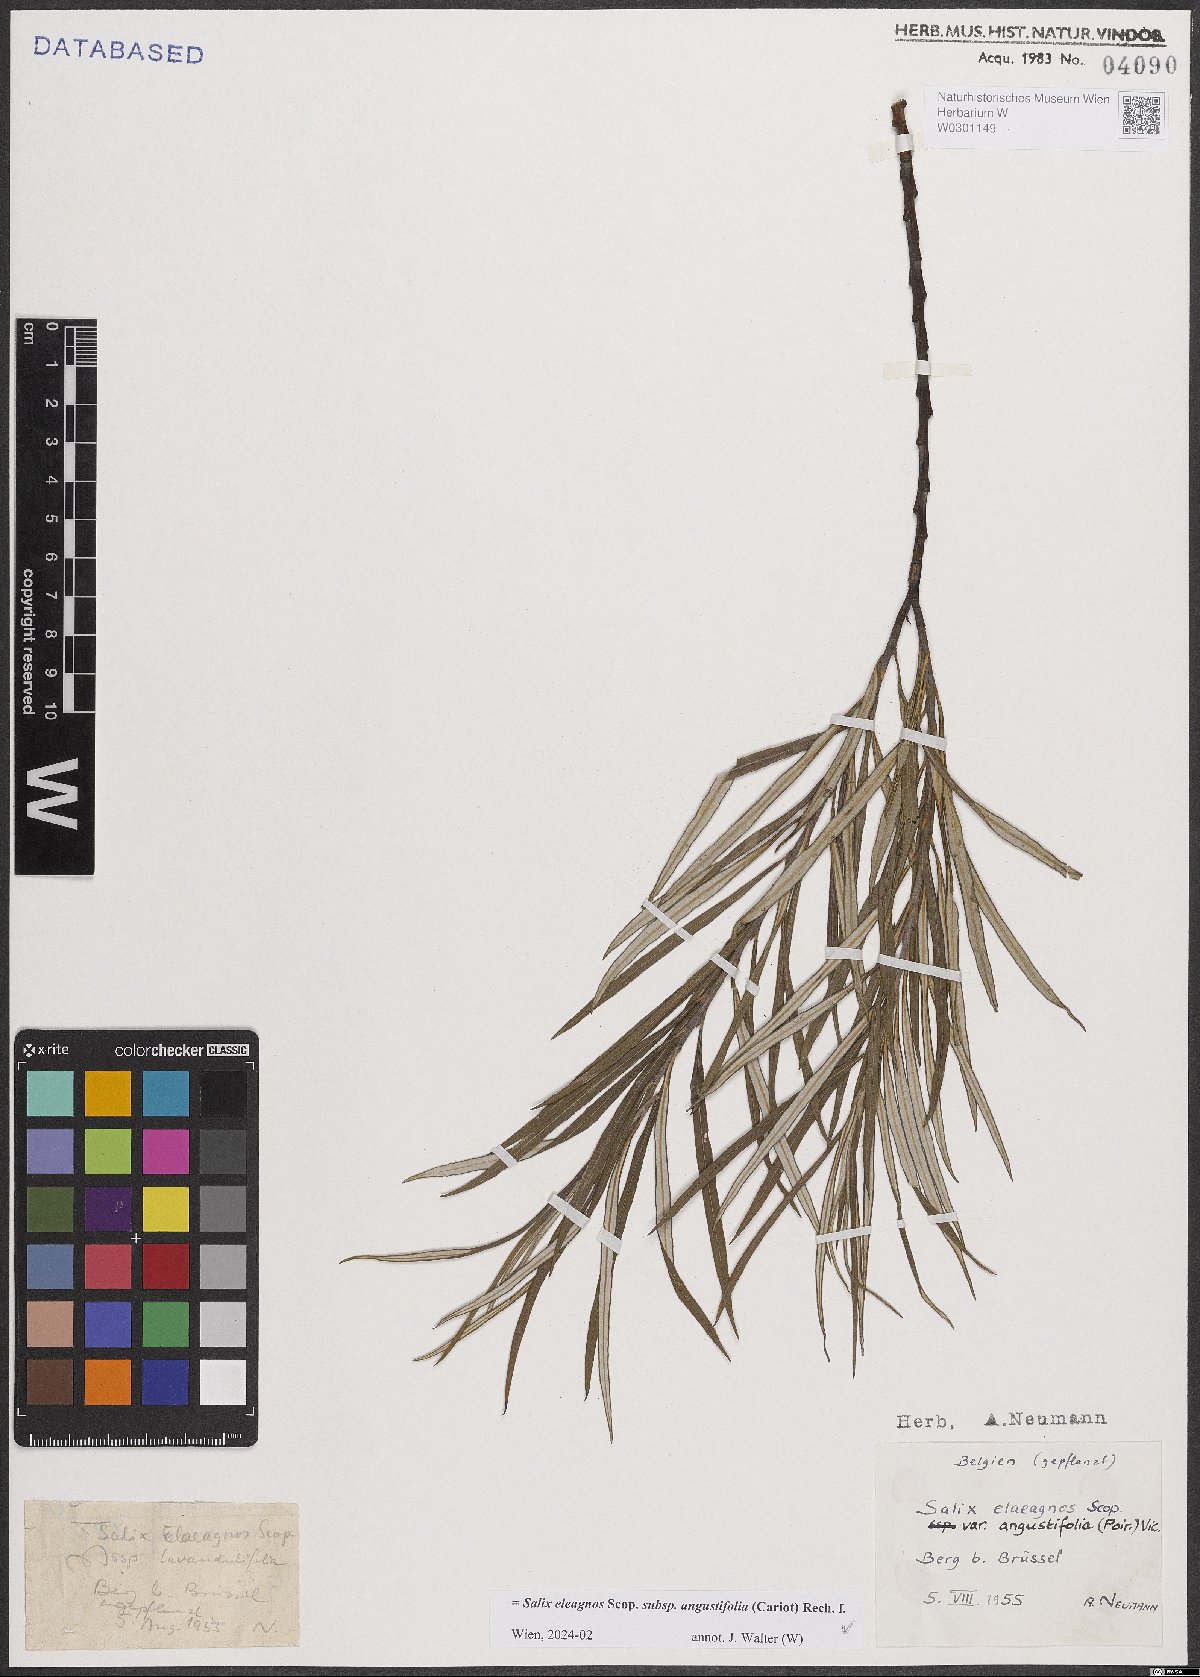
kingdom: Plantae
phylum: Tracheophyta
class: Magnoliopsida
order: Malpighiales
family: Salicaceae
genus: Salix
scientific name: Salix eleagnos
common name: Elaeagnus willow
